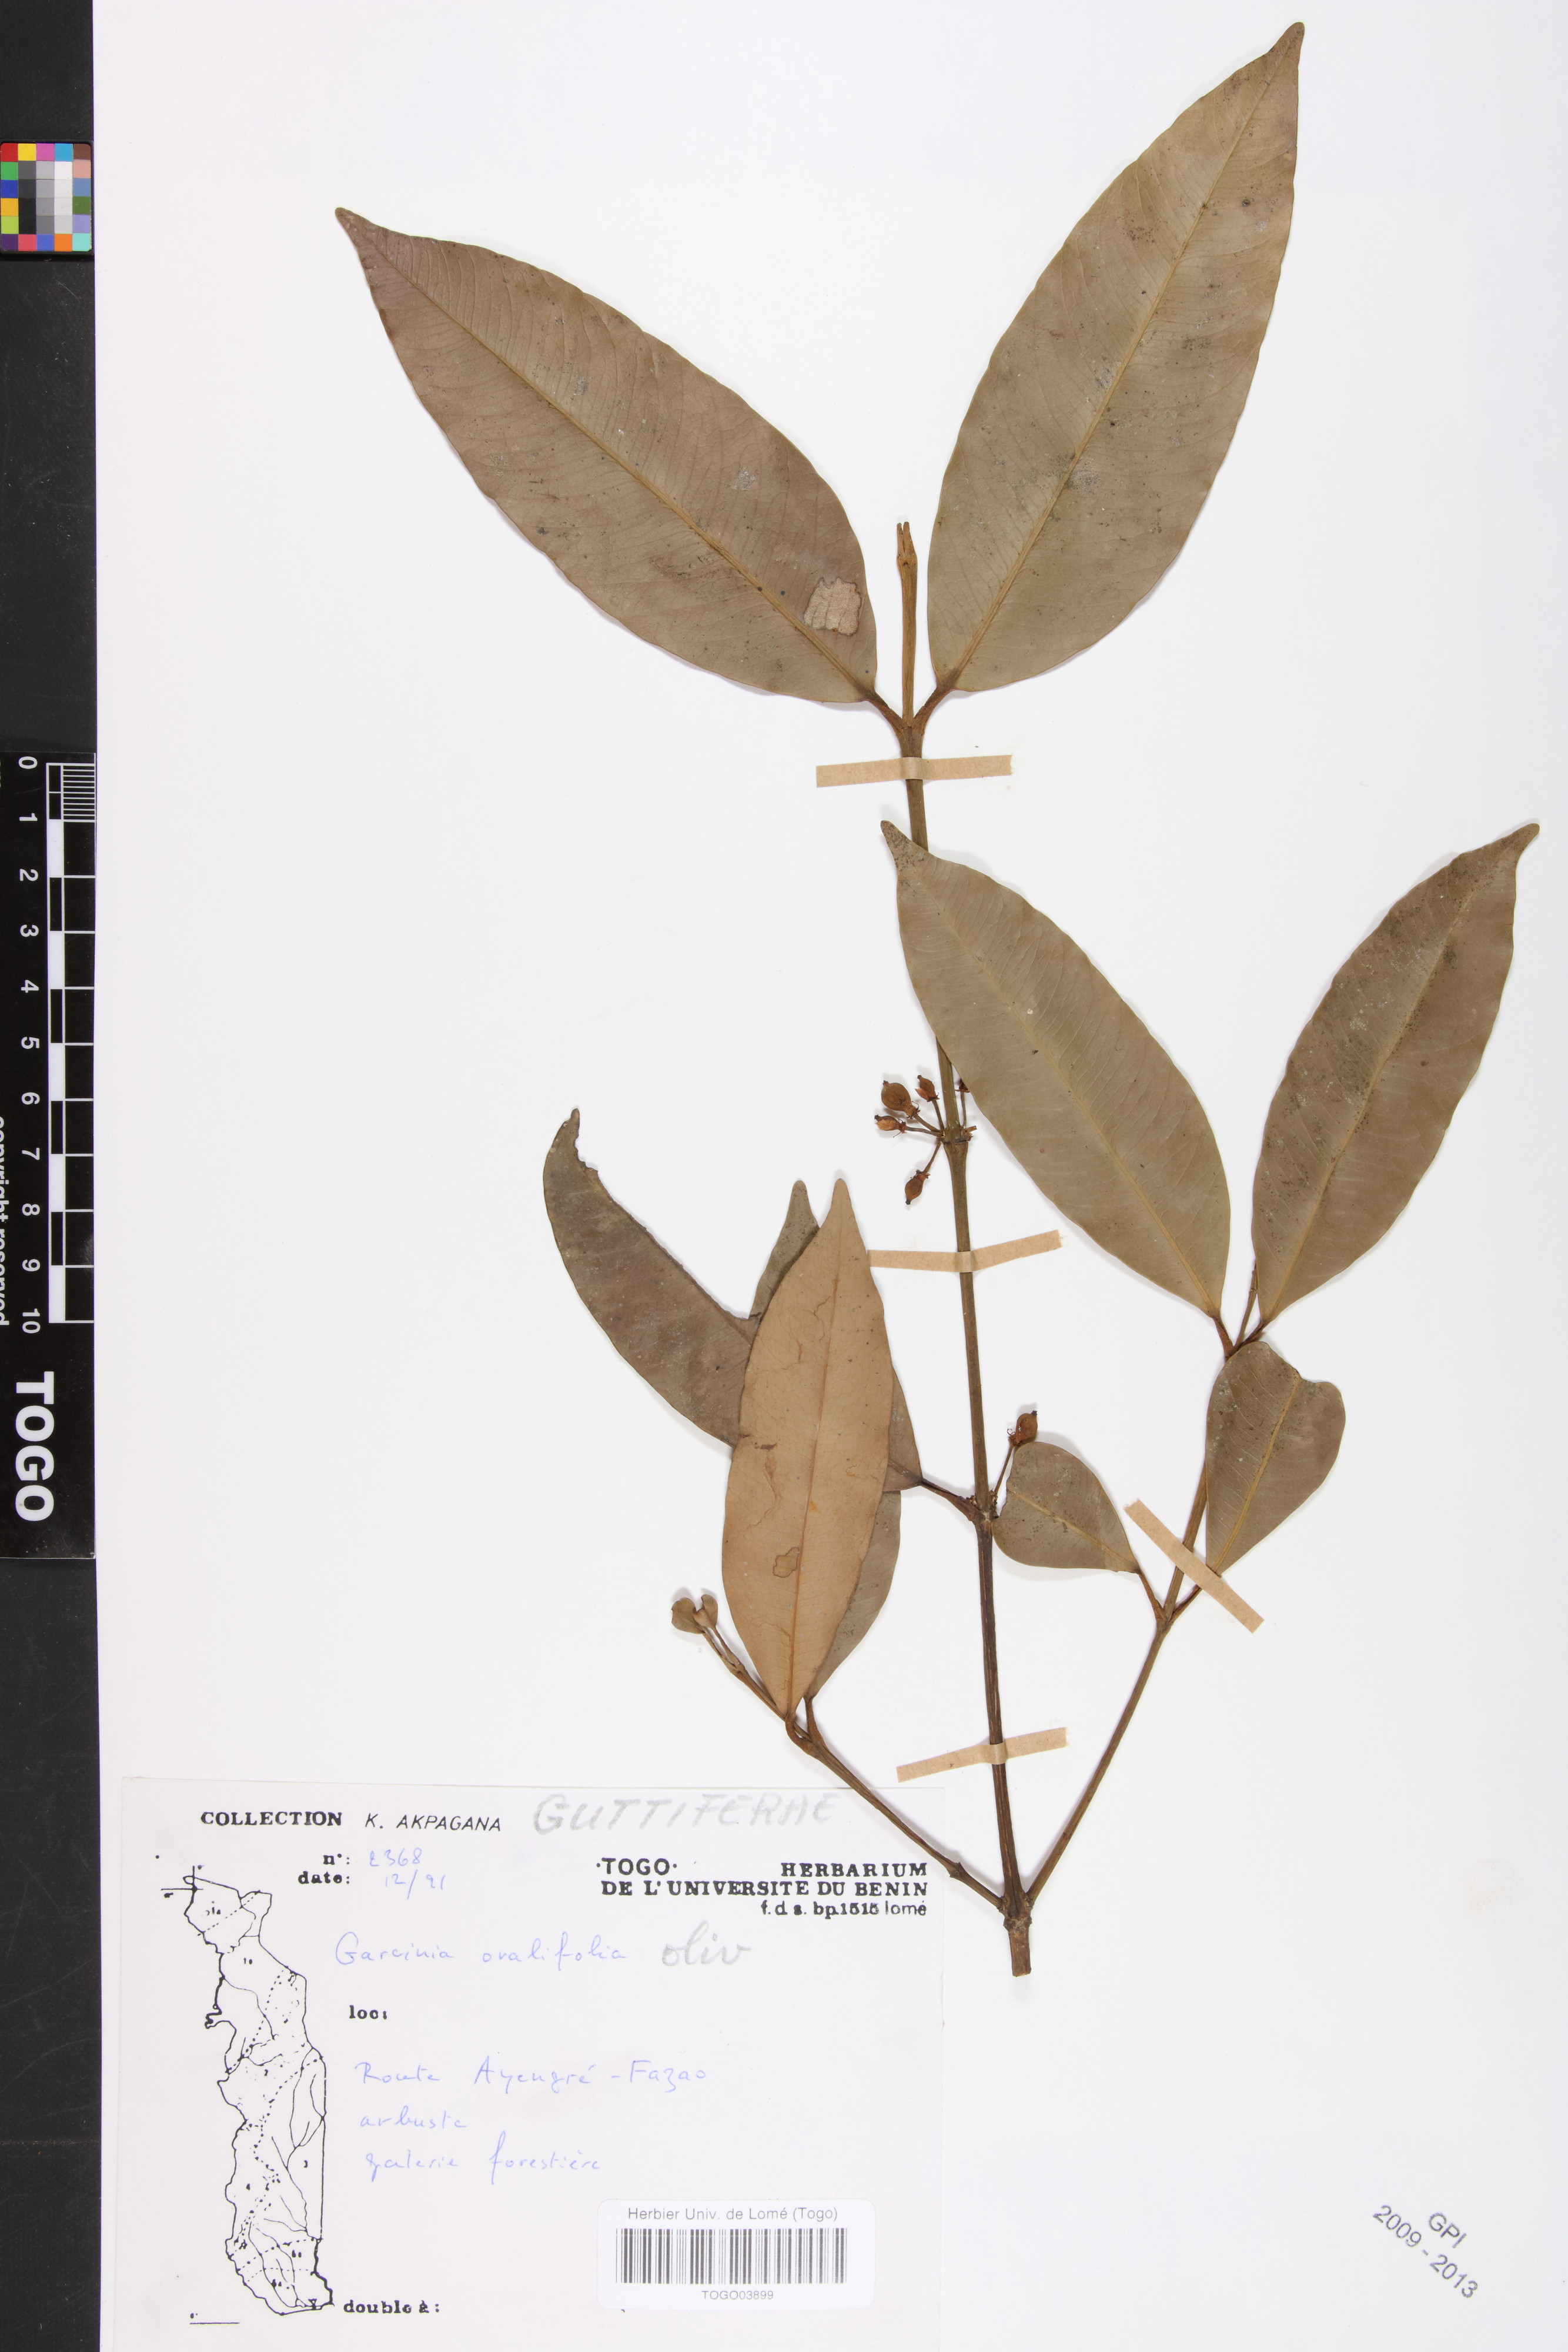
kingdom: Plantae
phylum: Tracheophyta
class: Magnoliopsida
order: Malpighiales
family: Clusiaceae
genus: Garcinia
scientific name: Garcinia ovalifolia
